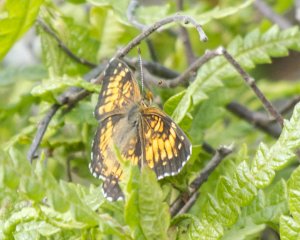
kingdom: Animalia
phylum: Arthropoda
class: Insecta
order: Lepidoptera
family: Nymphalidae
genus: Phyciodes
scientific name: Phyciodes tharos
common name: Northern Crescent
